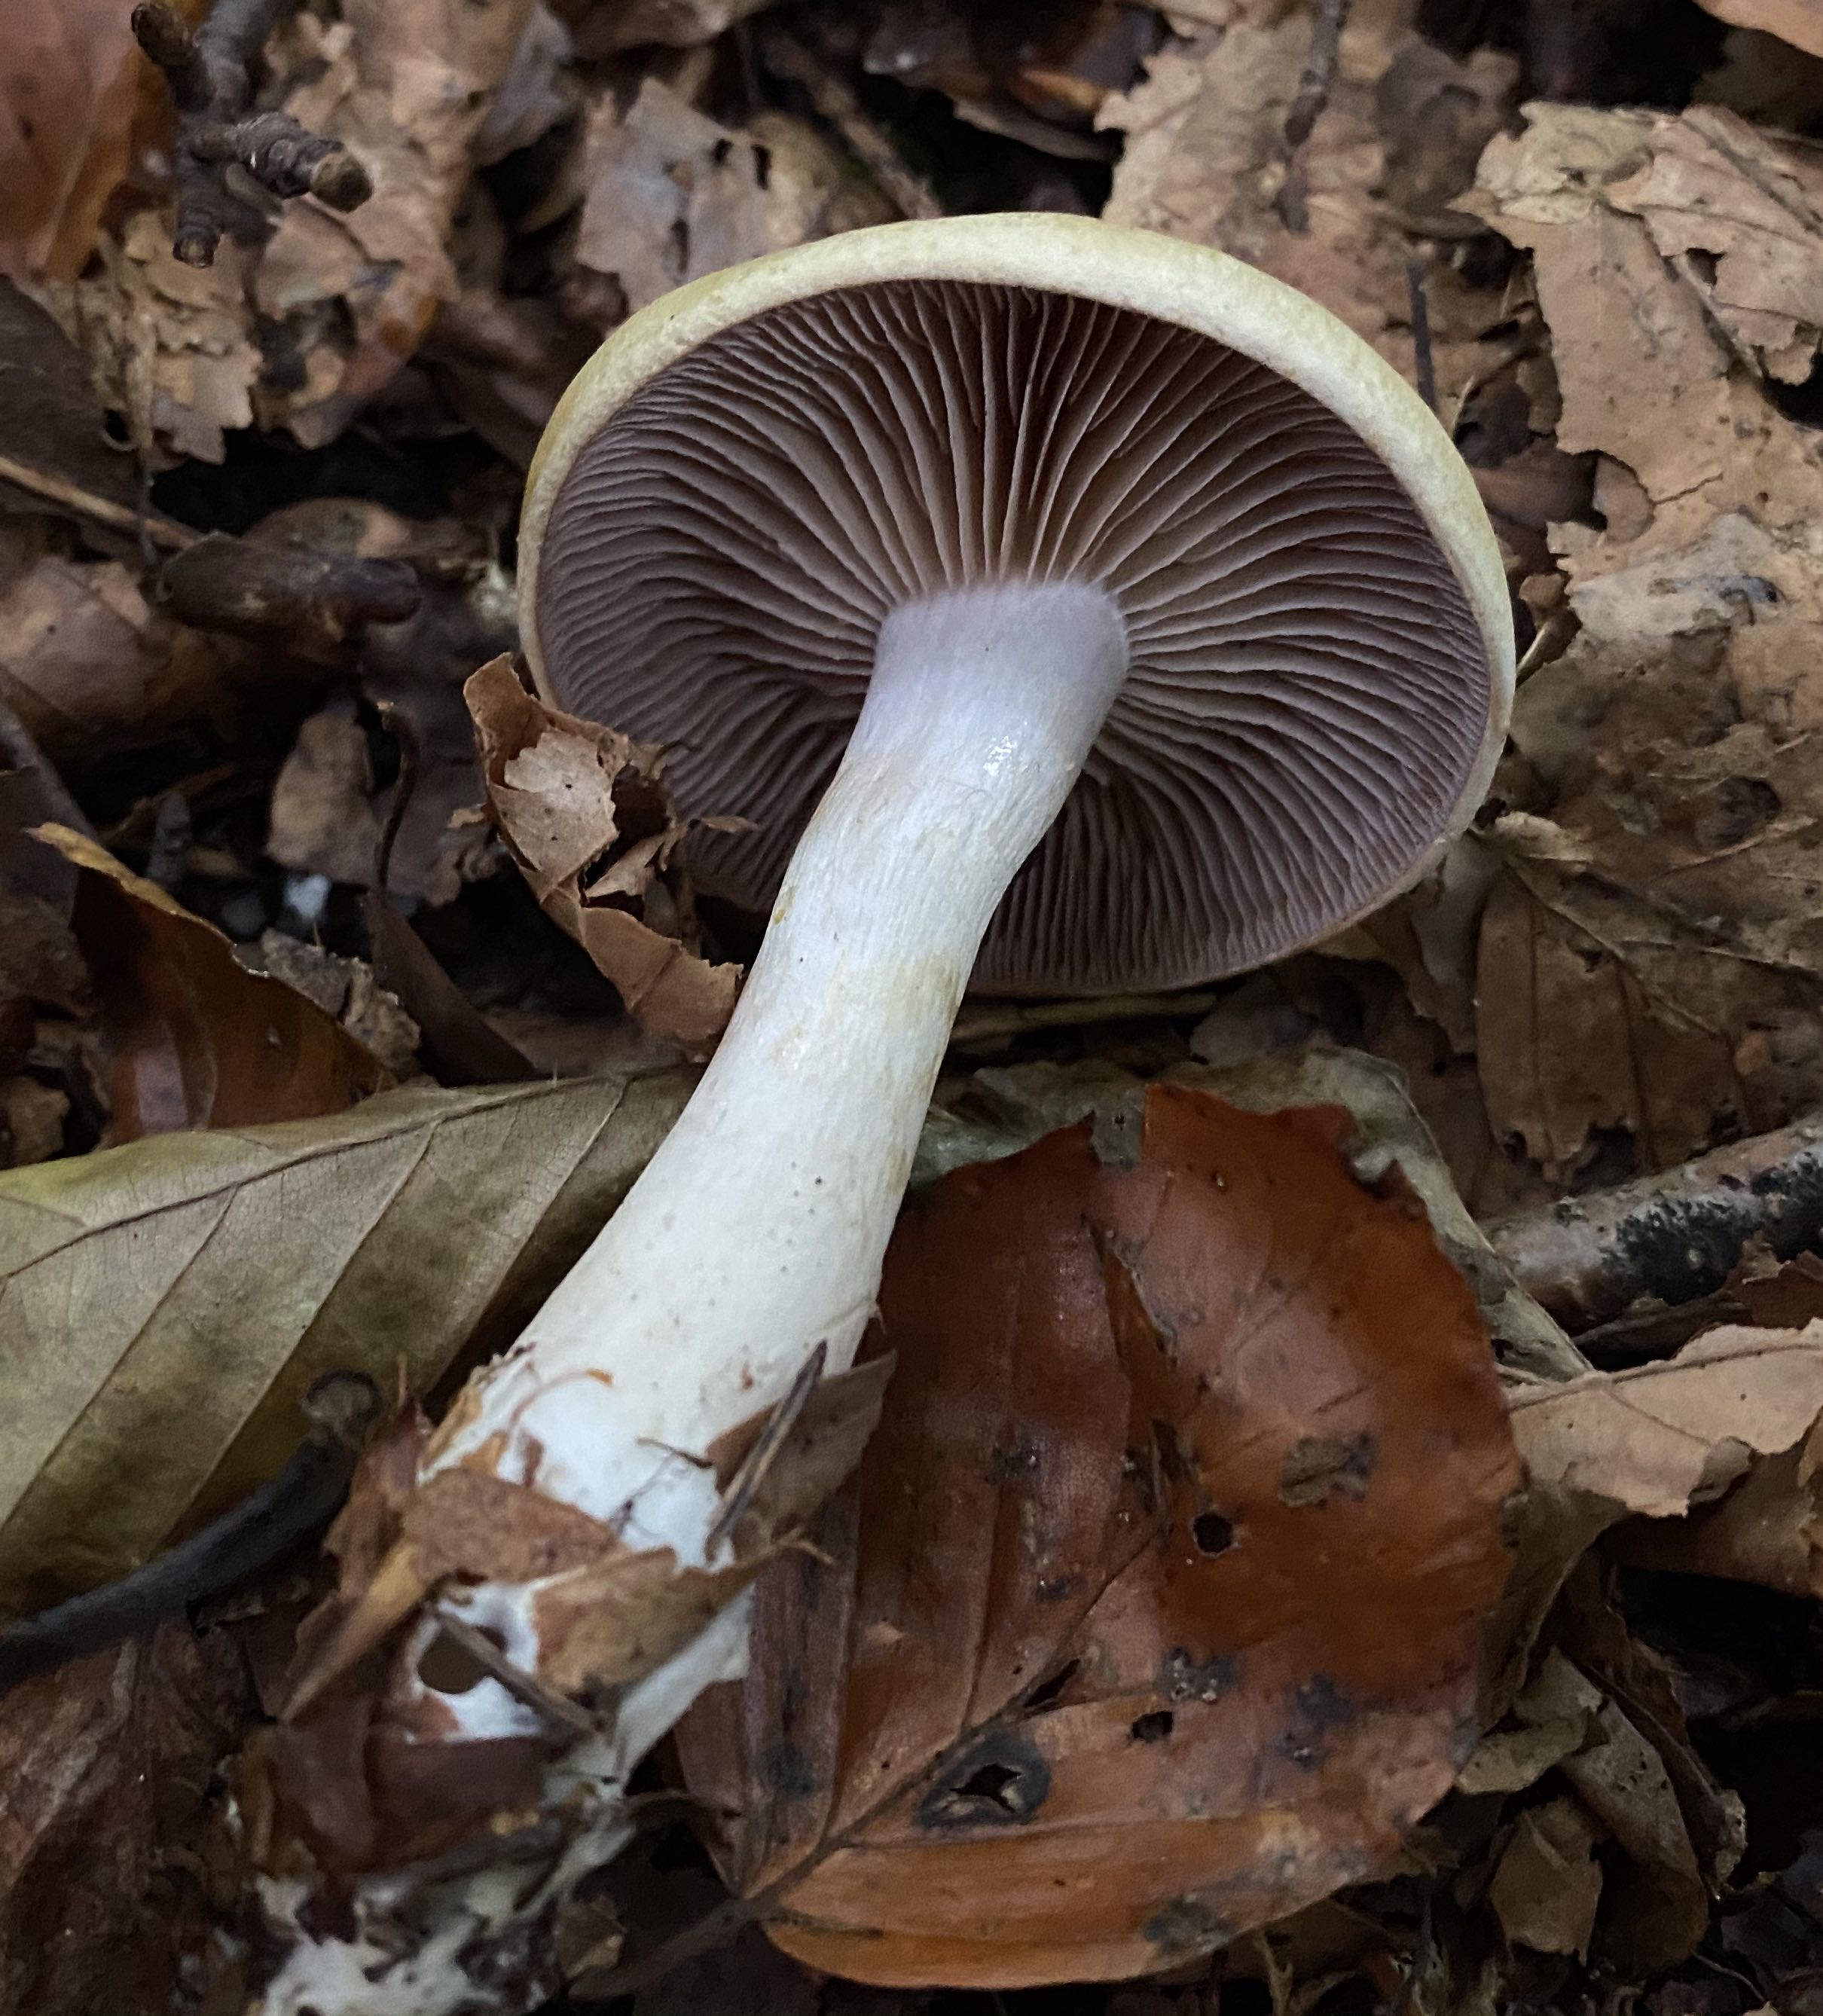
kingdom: Fungi
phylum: Basidiomycota
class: Agaricomycetes
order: Agaricales
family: Cortinariaceae
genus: Cortinarius
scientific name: Cortinarius
